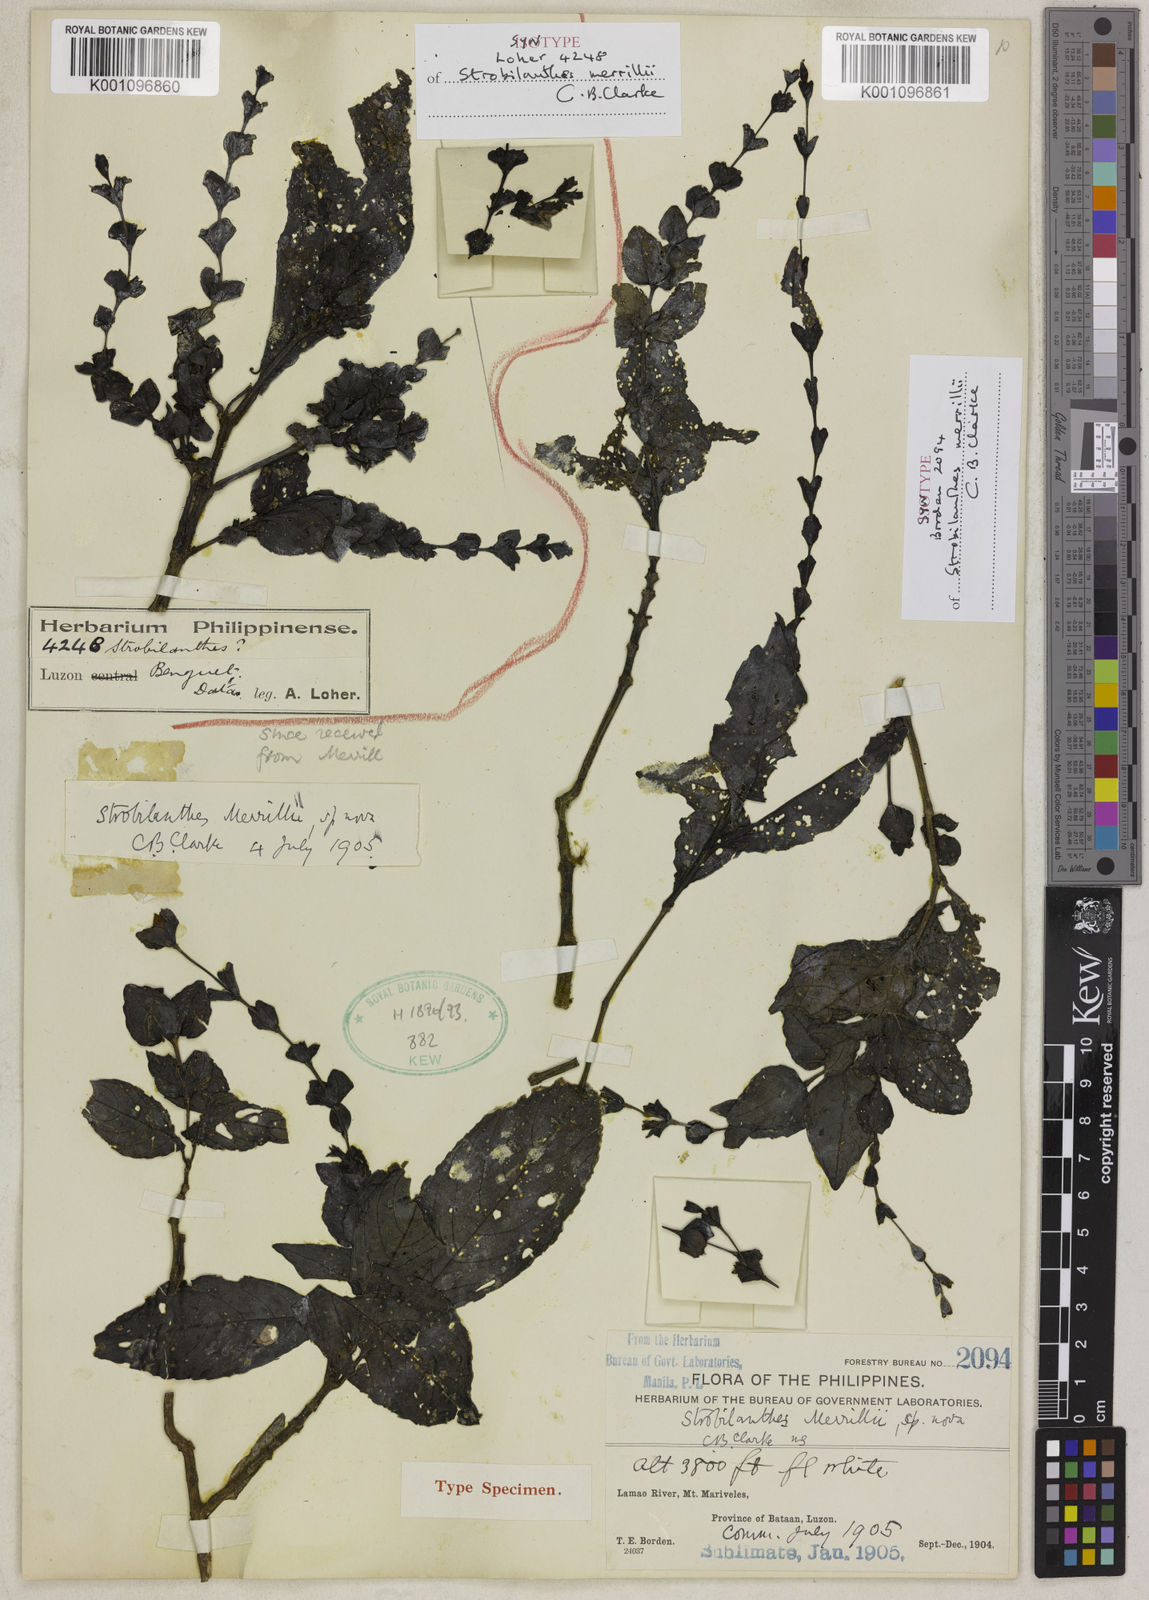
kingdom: Plantae
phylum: Tracheophyta
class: Magnoliopsida
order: Lamiales
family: Acanthaceae
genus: Strobilanthes
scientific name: Strobilanthes merrillii
